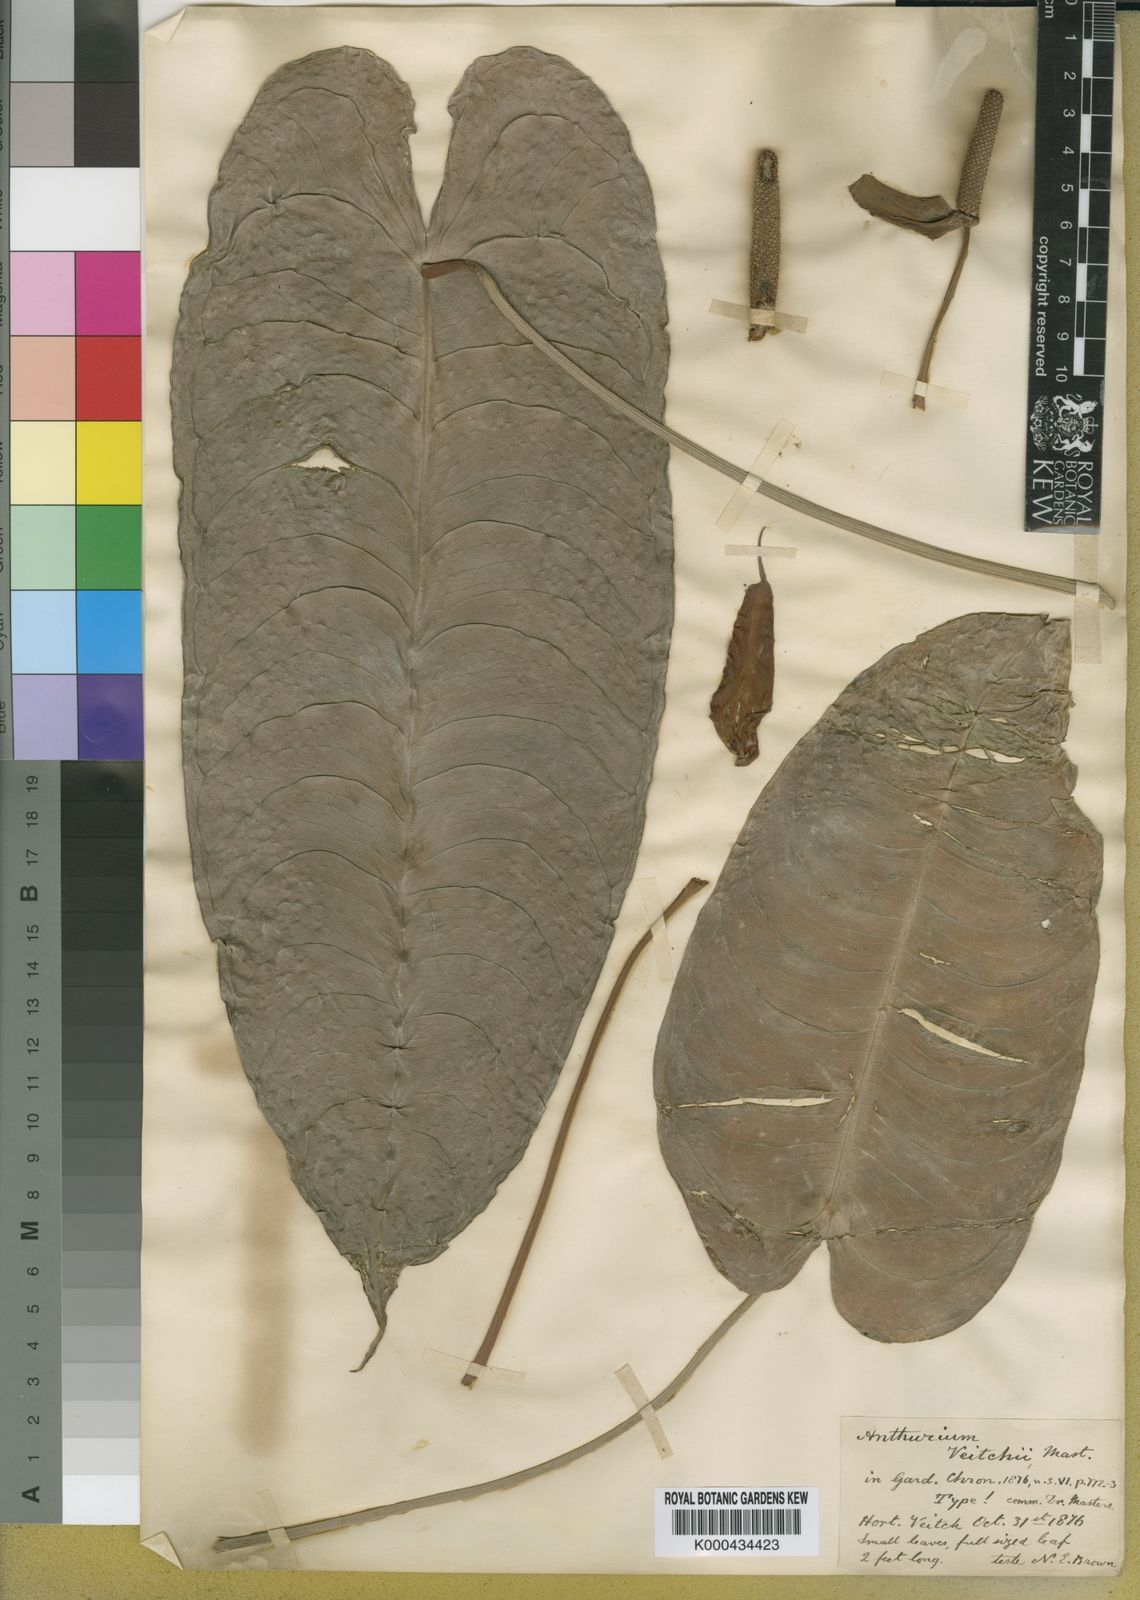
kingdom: Plantae
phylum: Tracheophyta
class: Liliopsida
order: Alismatales
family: Araceae
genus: Anthurium
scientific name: Anthurium veitchii
